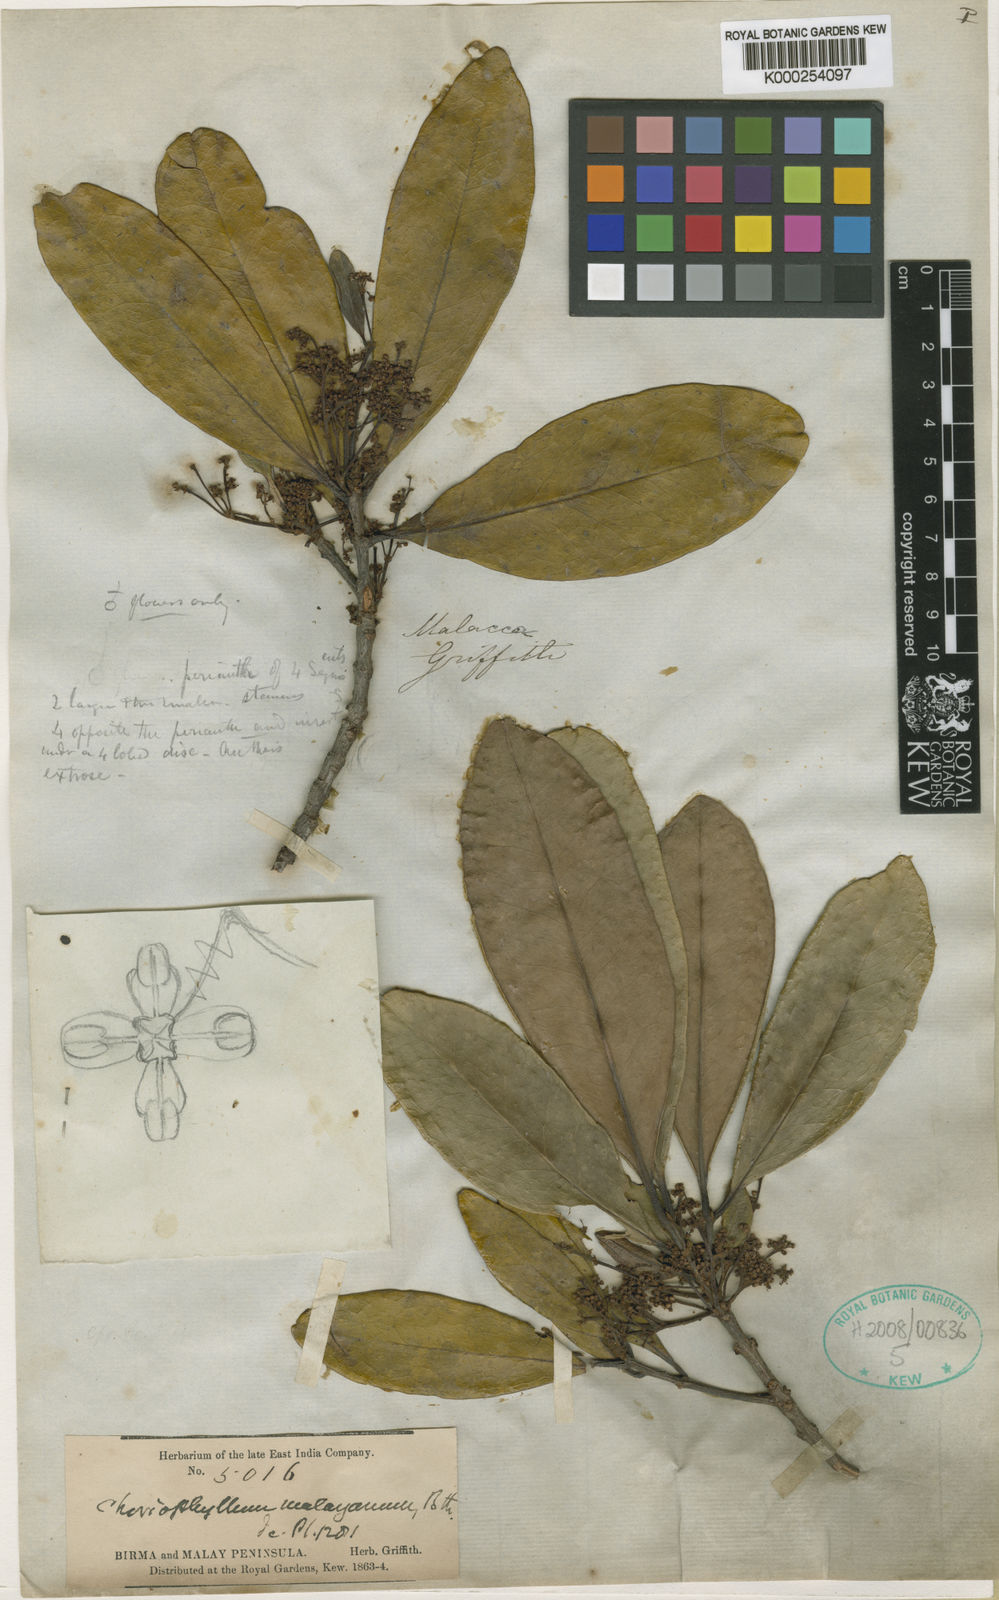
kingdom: Plantae
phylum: Tracheophyta
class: Magnoliopsida
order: Malpighiales
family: Picrodendraceae
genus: Austrobuxus
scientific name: Austrobuxus nitidus
